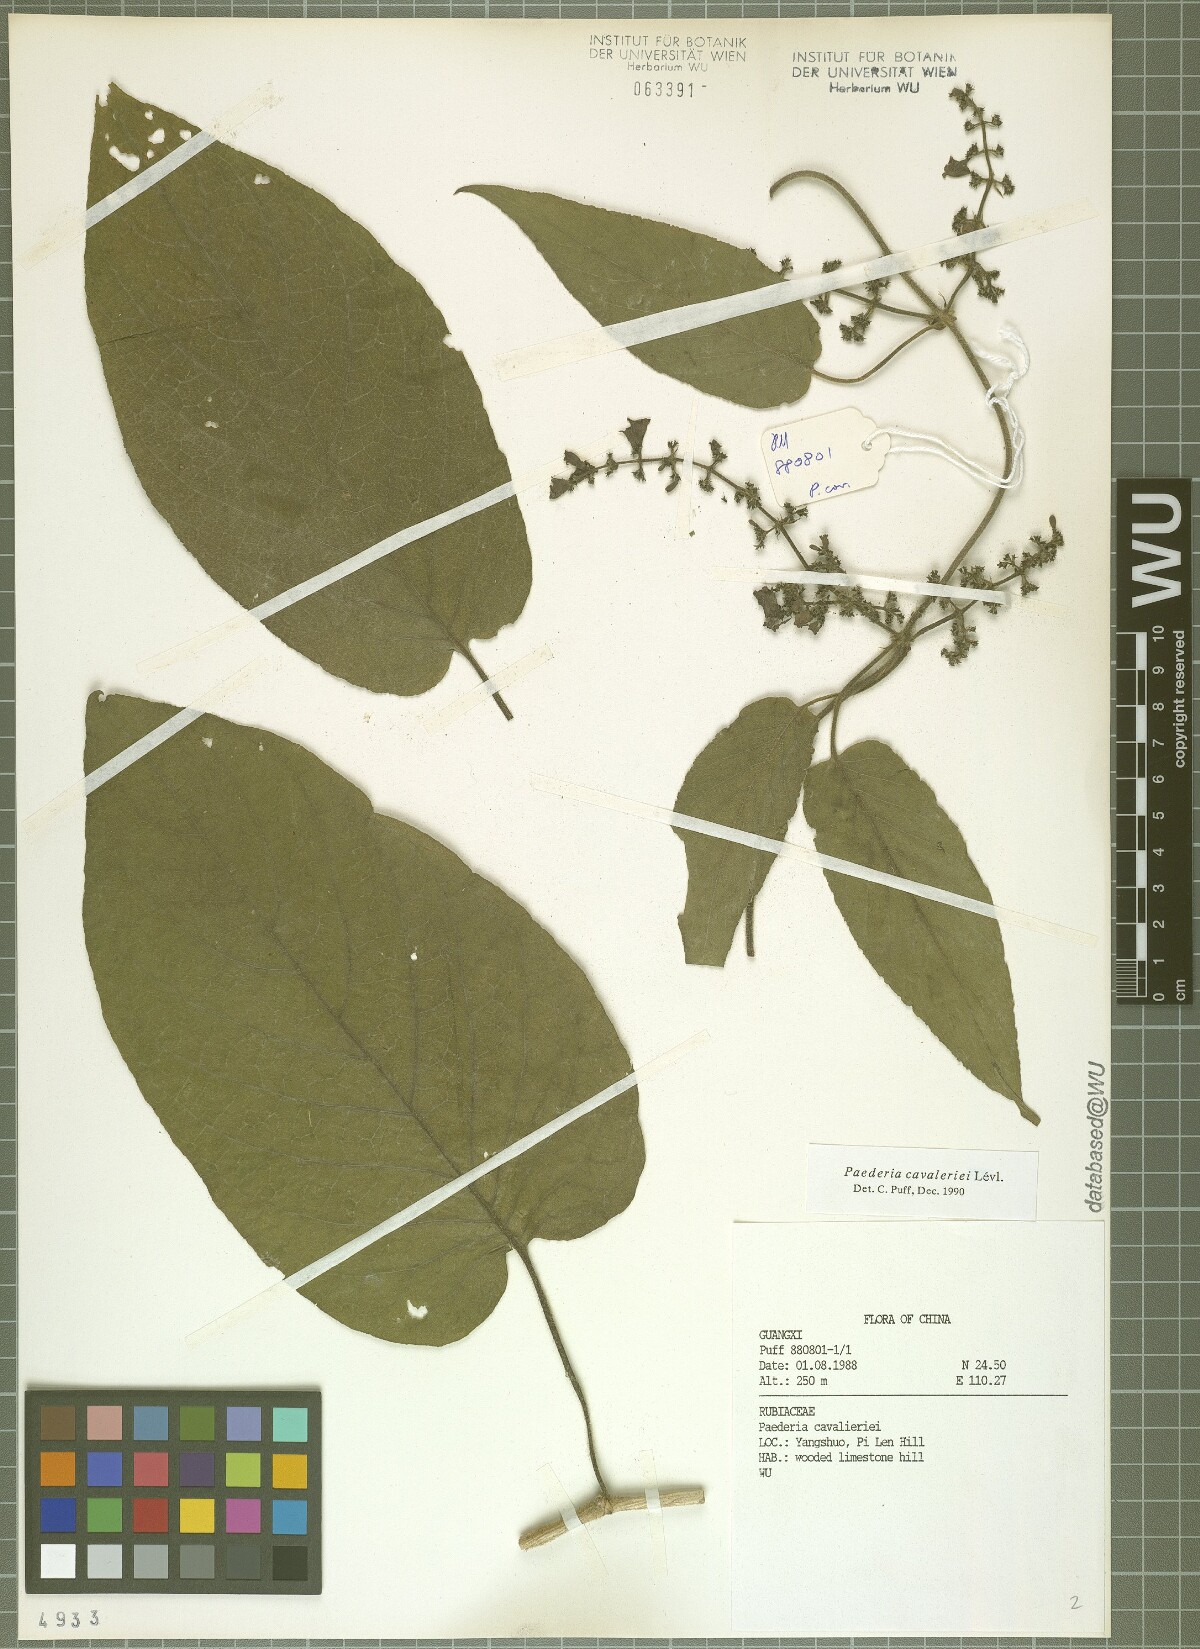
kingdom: Plantae
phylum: Tracheophyta
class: Magnoliopsida
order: Gentianales
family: Rubiaceae
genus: Paederia
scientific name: Paederia cavaleriei
